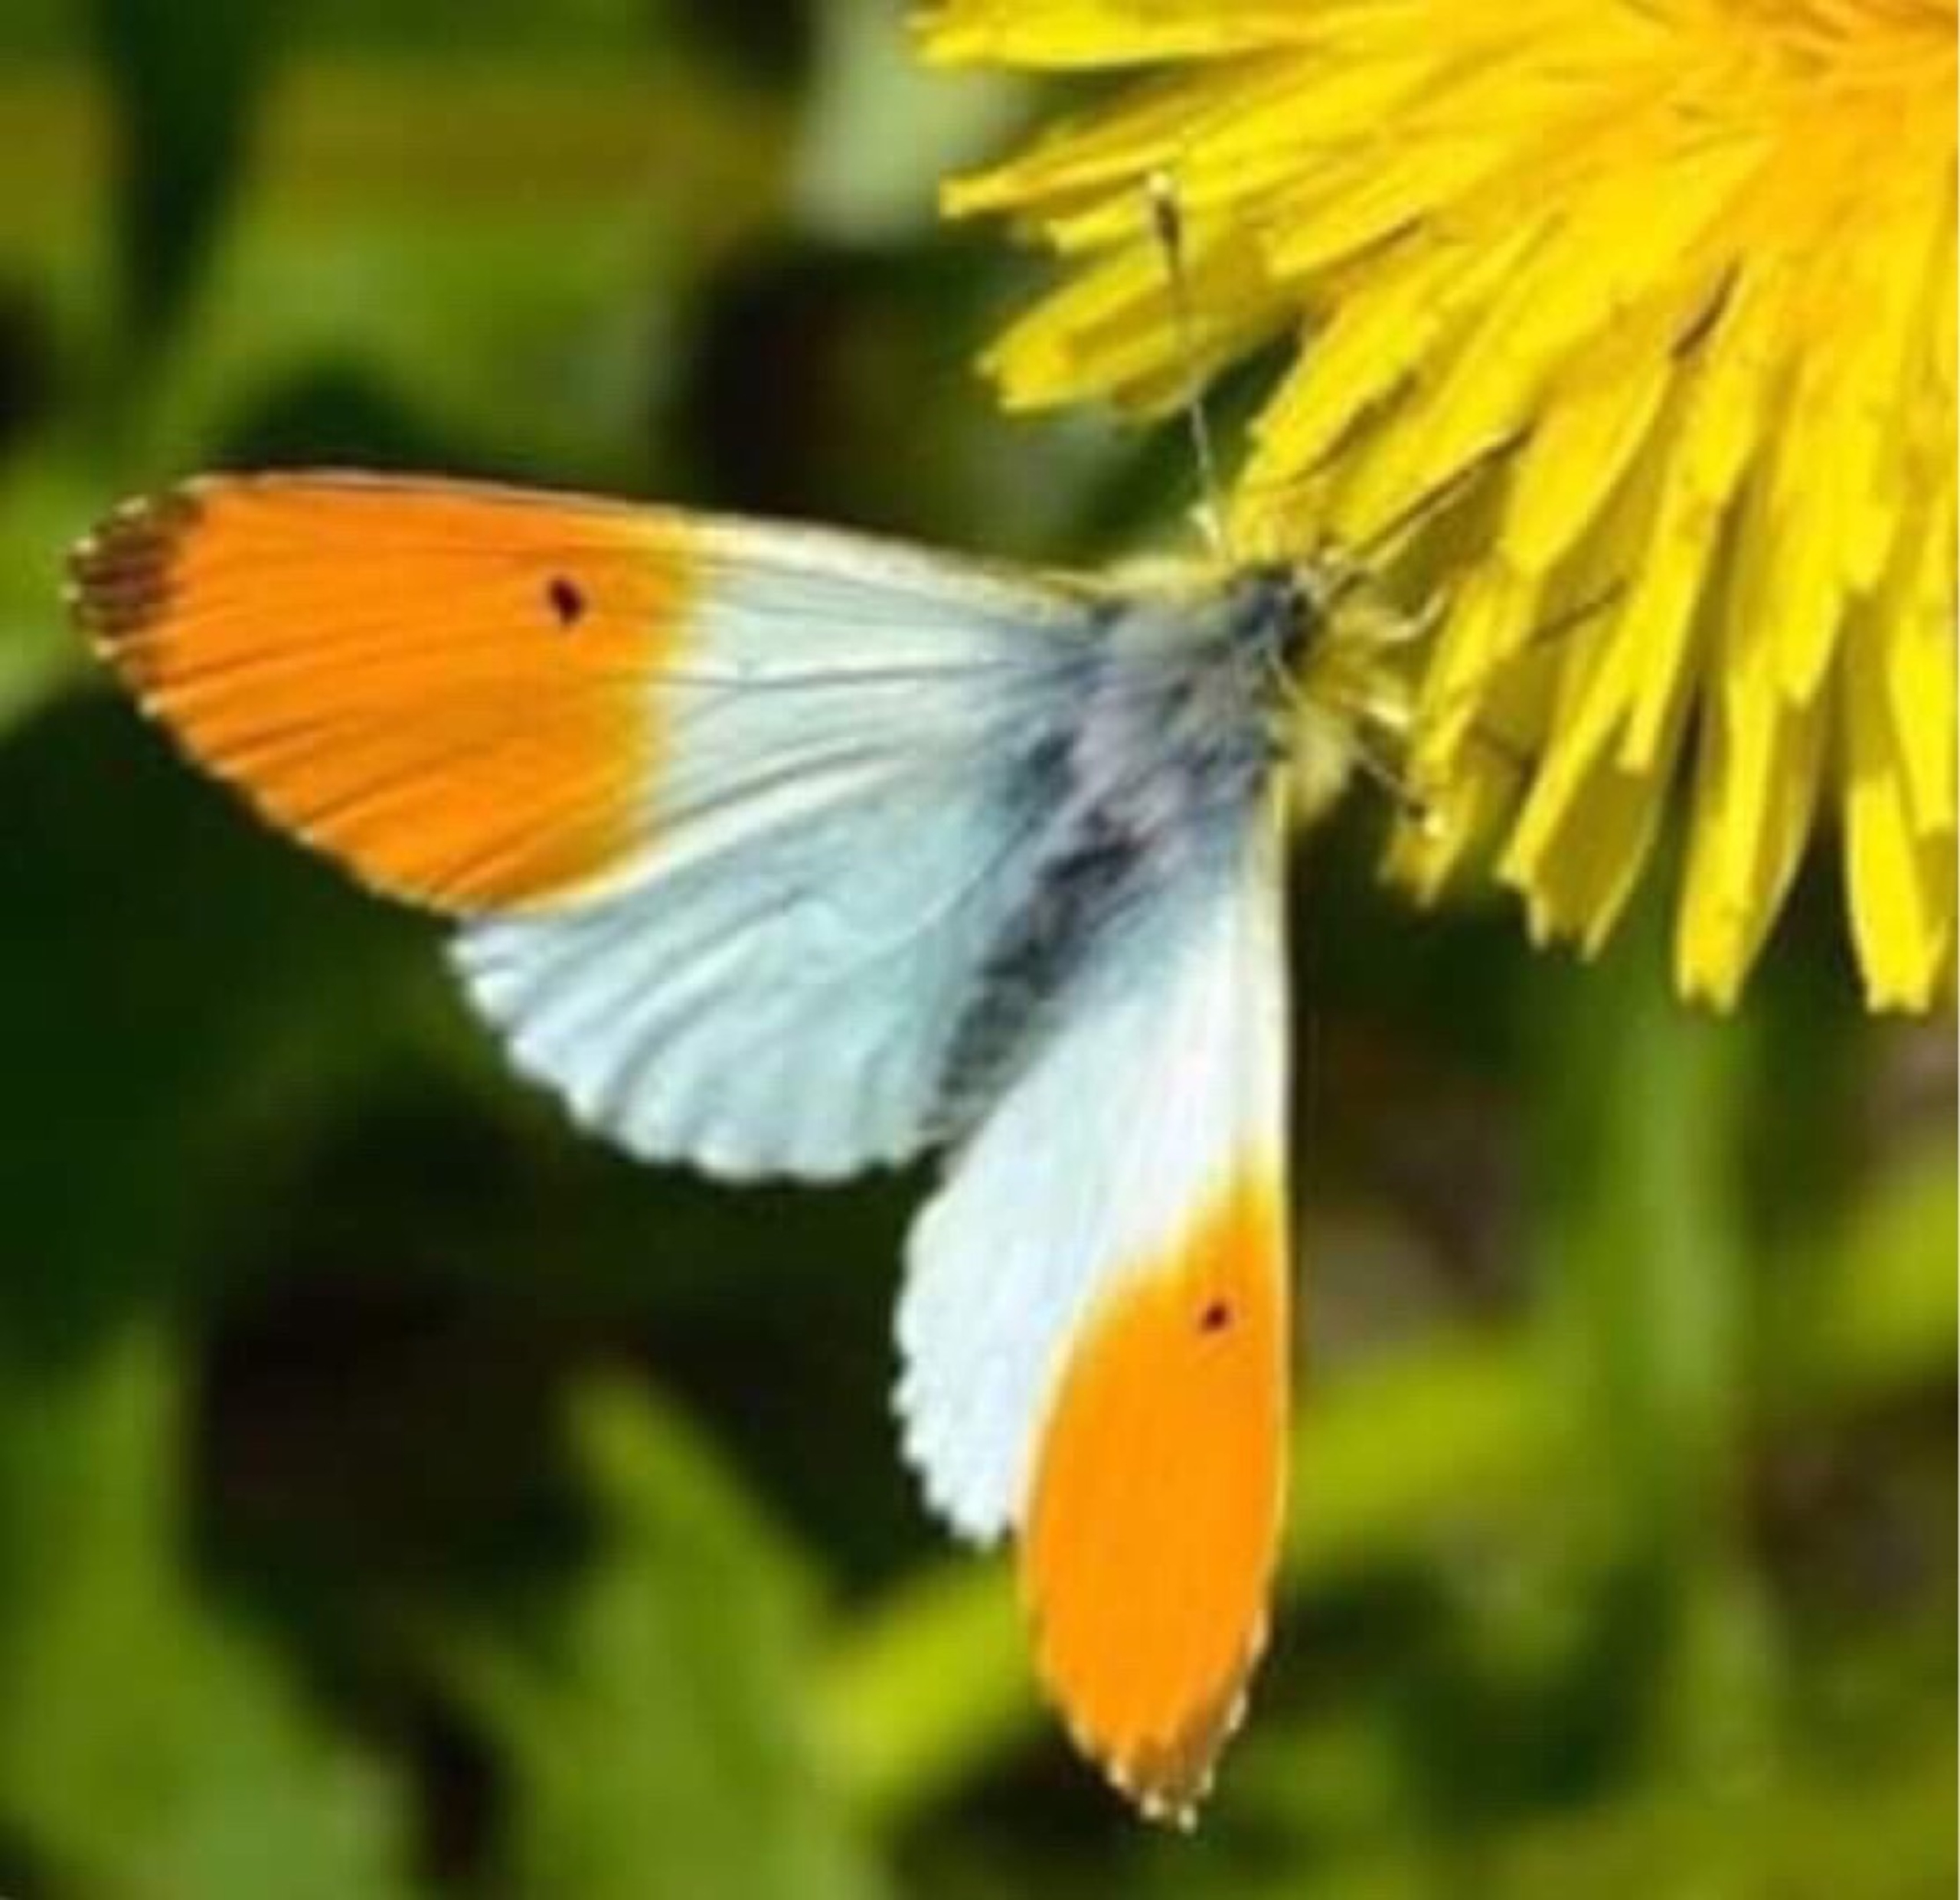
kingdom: Animalia
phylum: Arthropoda
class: Insecta
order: Lepidoptera
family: Pieridae
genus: Anthocharis
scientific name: Anthocharis cardamines
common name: Aurora
